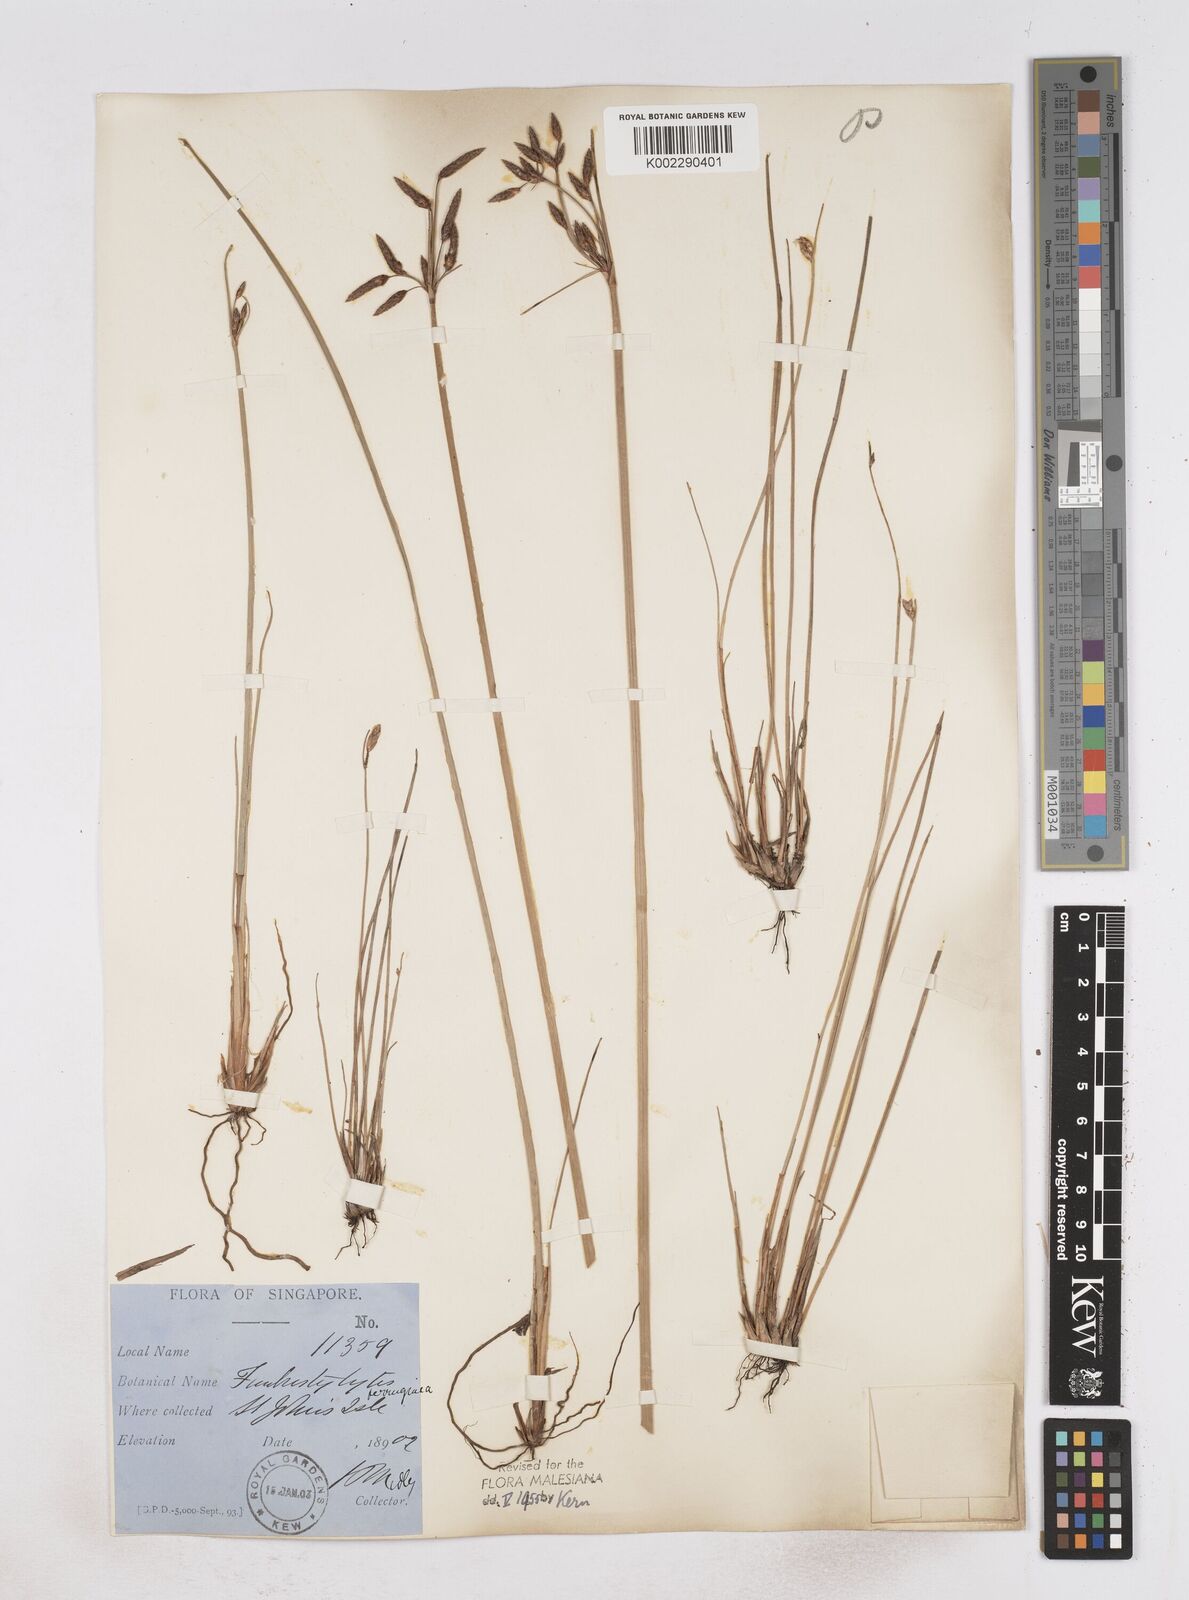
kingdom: Plantae
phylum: Tracheophyta
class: Liliopsida
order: Poales
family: Cyperaceae
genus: Fimbristylis
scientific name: Fimbristylis ferruginea
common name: West indian fimbry
